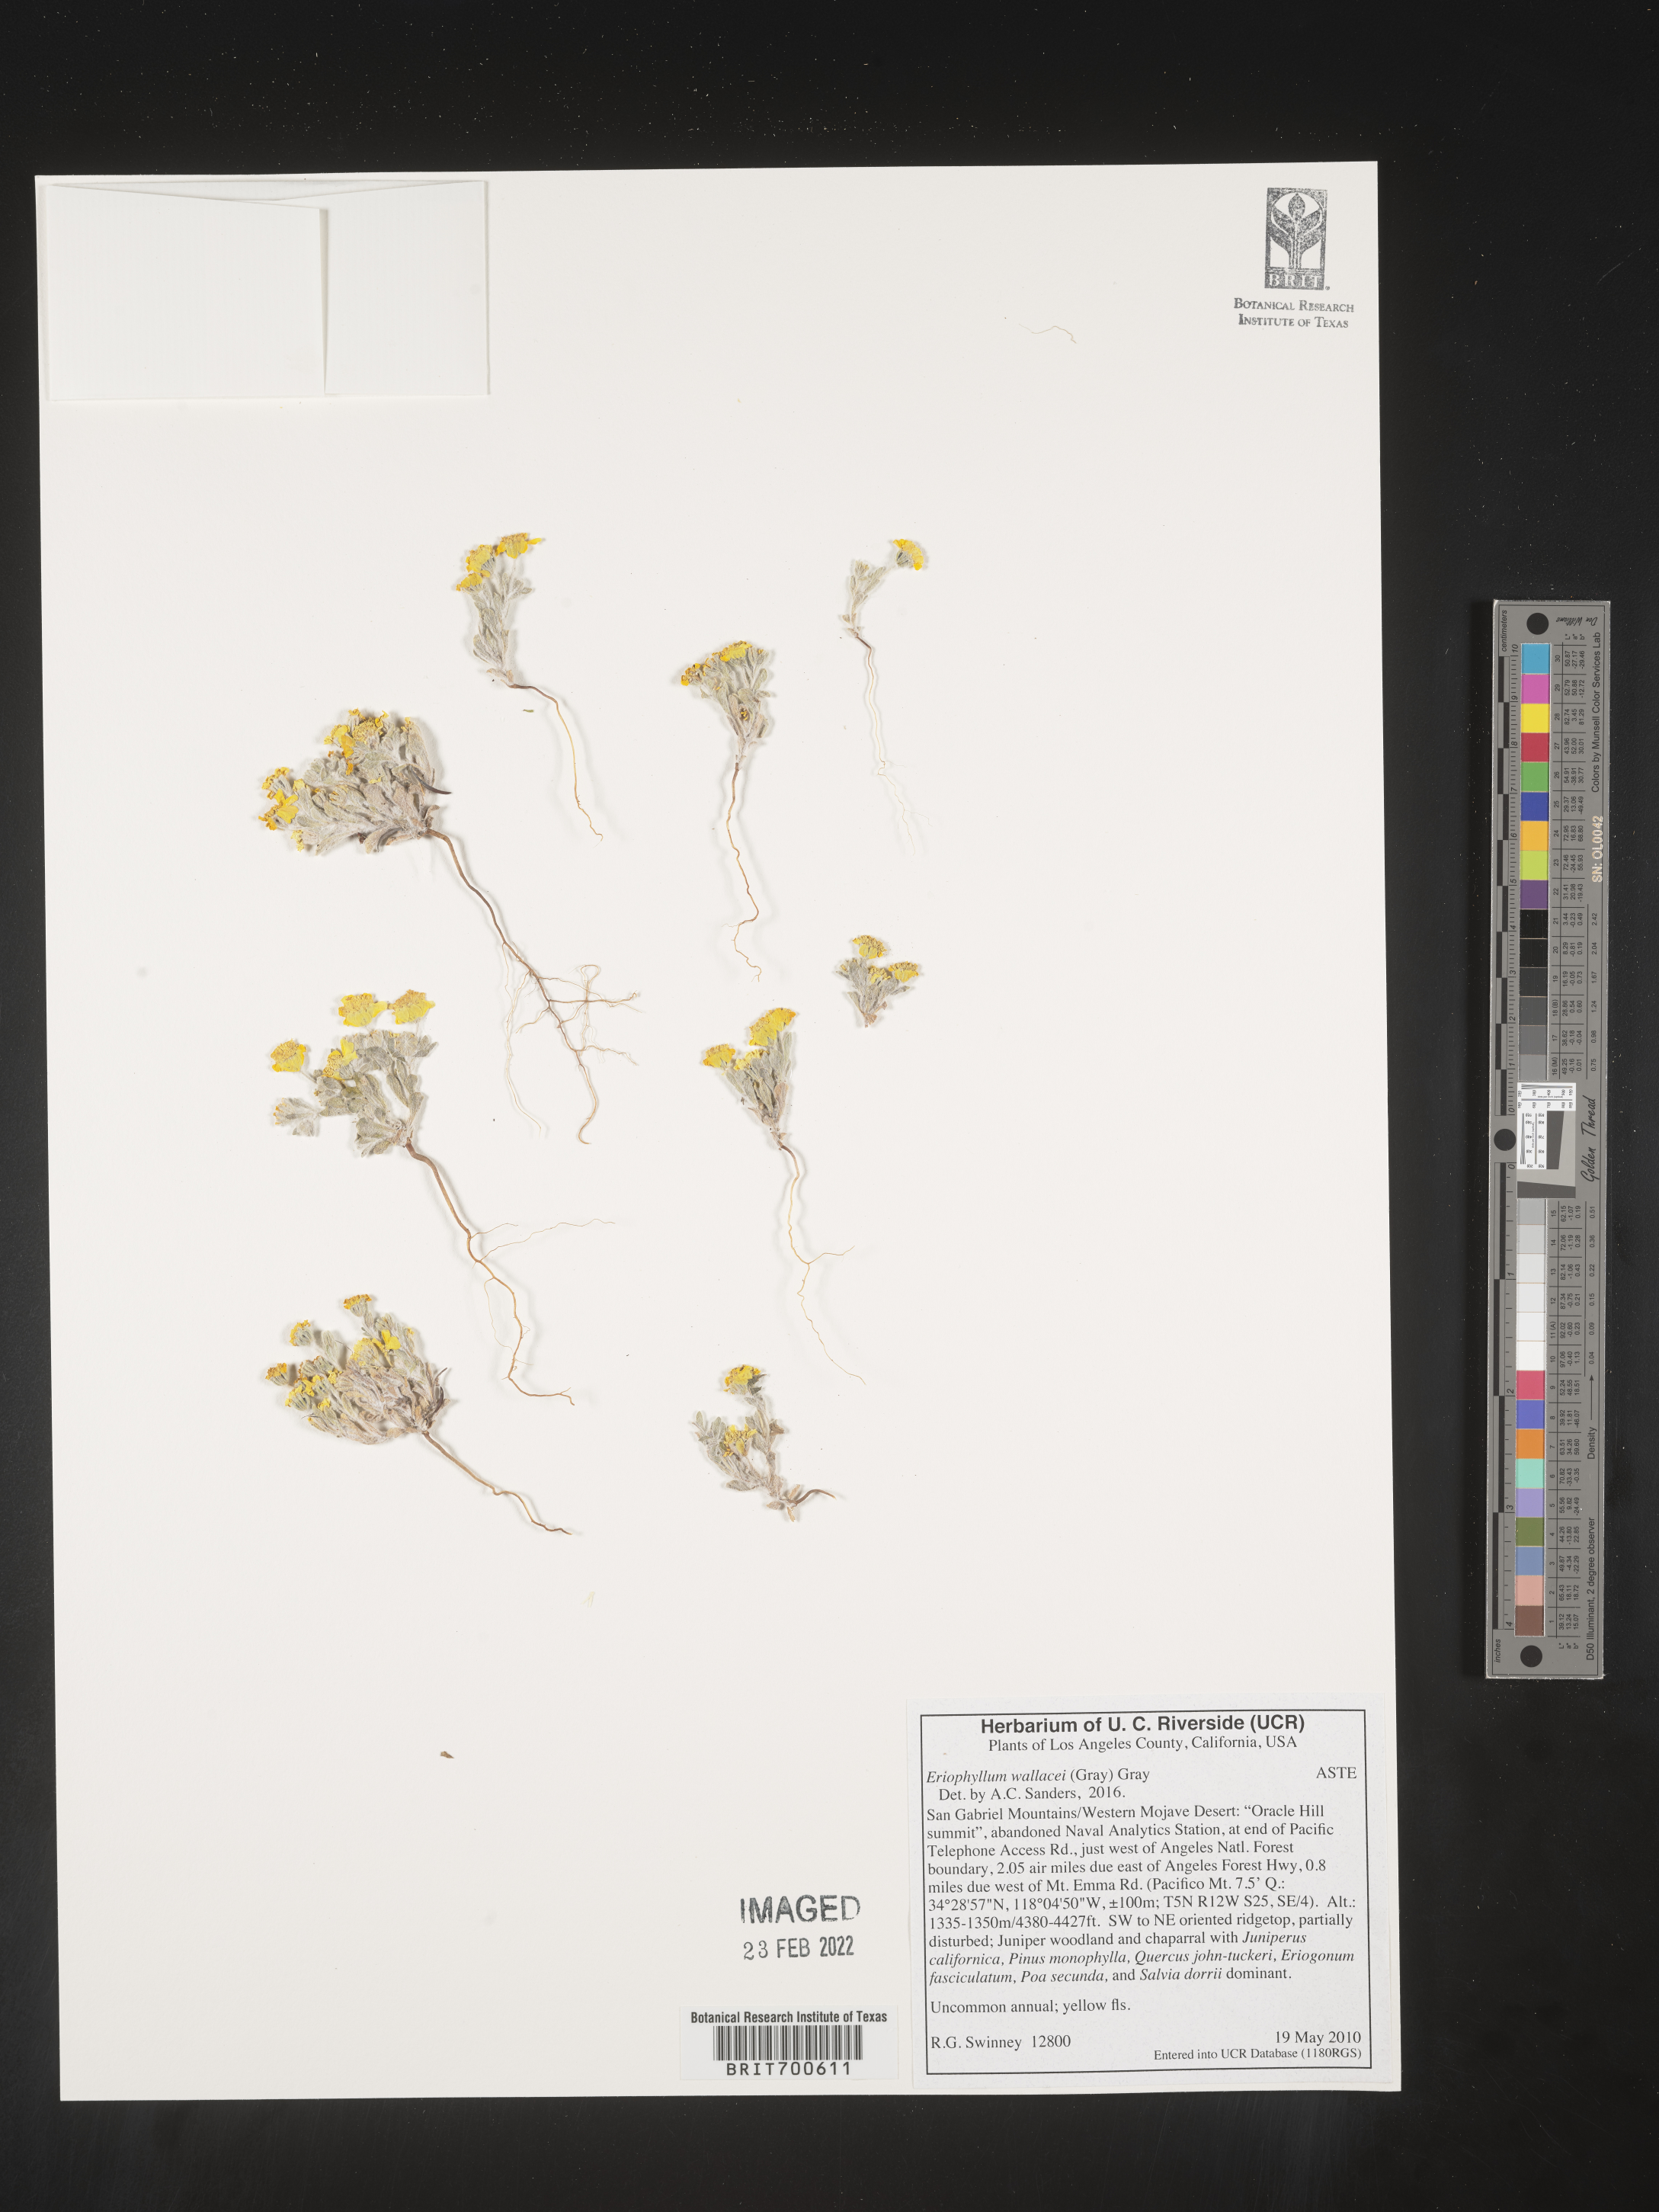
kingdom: Plantae
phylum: Tracheophyta
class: Magnoliopsida
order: Asterales
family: Asteraceae
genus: Eriophyllum
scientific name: Eriophyllum wallacei
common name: Wallace's woolly daisy
